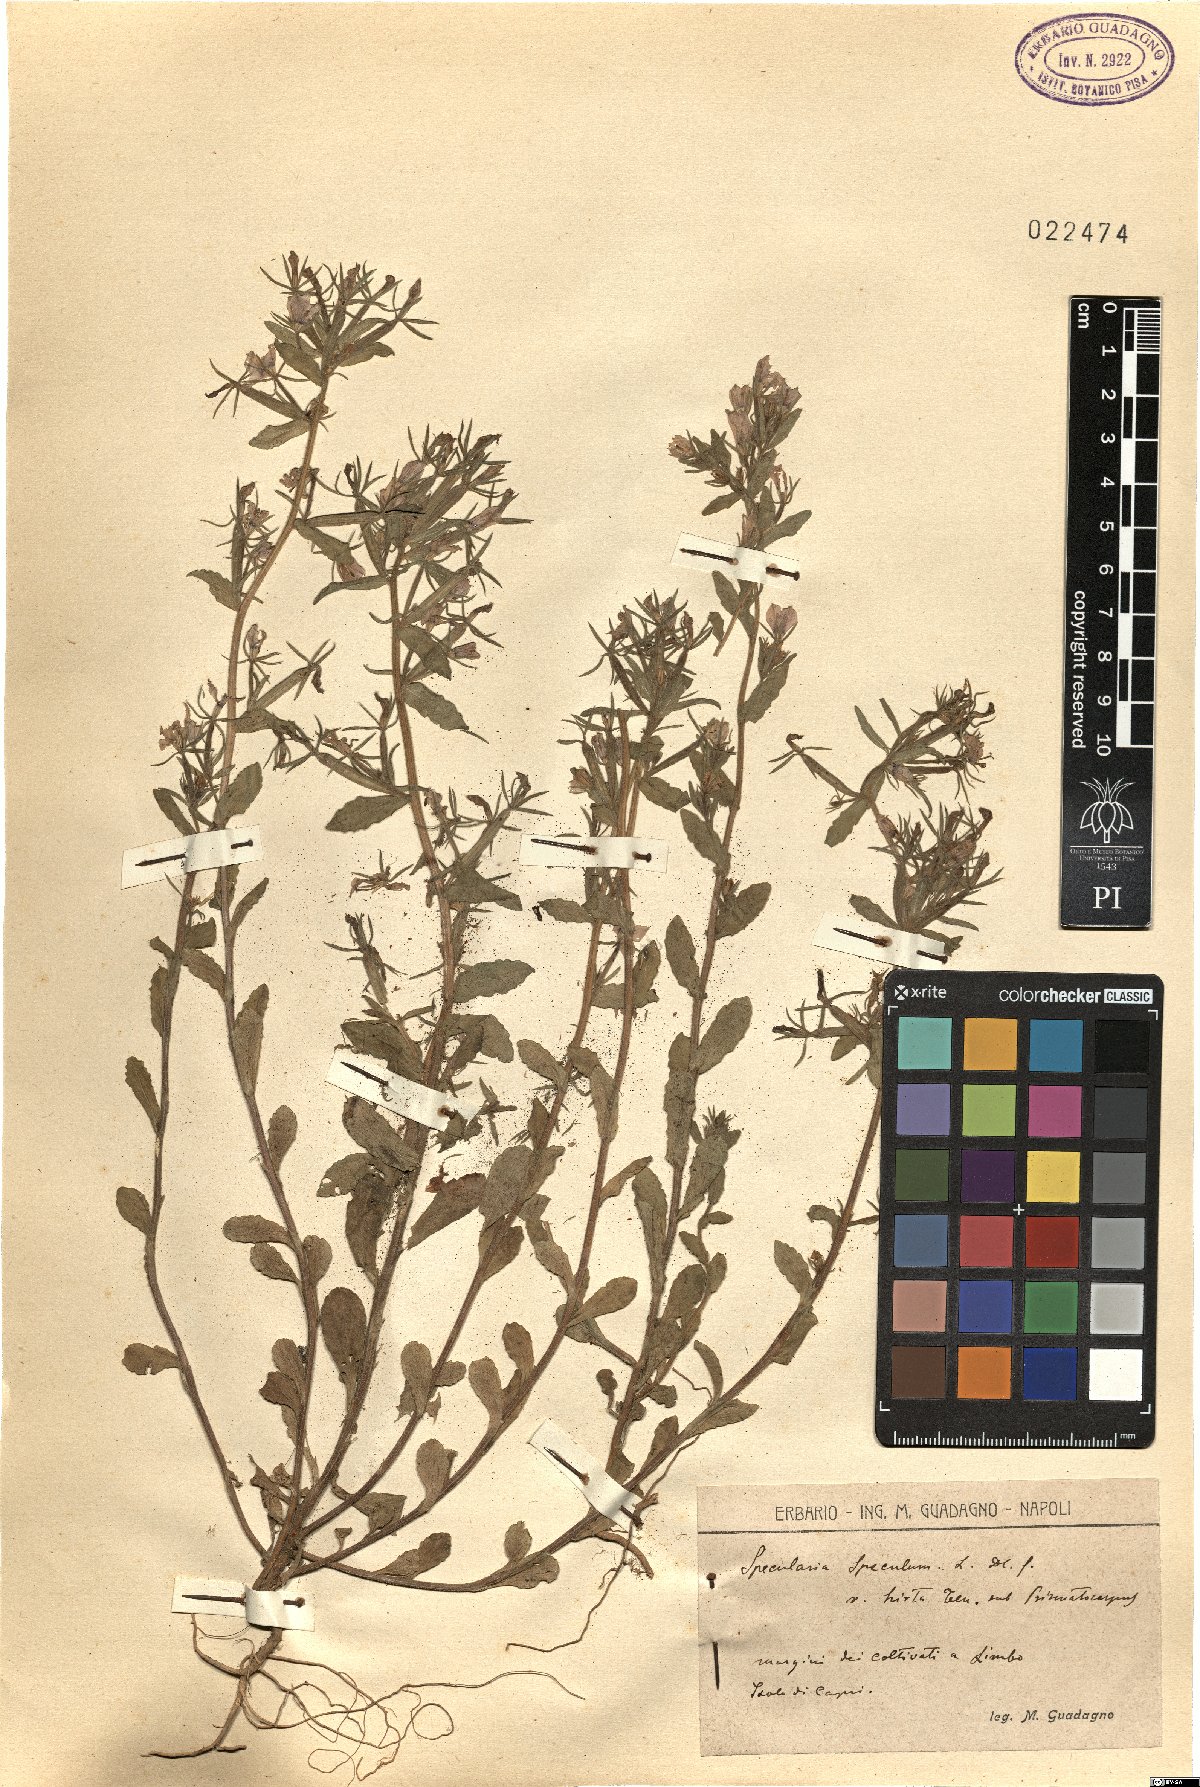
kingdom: Plantae
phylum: Tracheophyta
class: Magnoliopsida
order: Asterales
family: Campanulaceae
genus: Legousia
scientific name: Legousia speculum-veneris
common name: Large venus's-looking-glass
